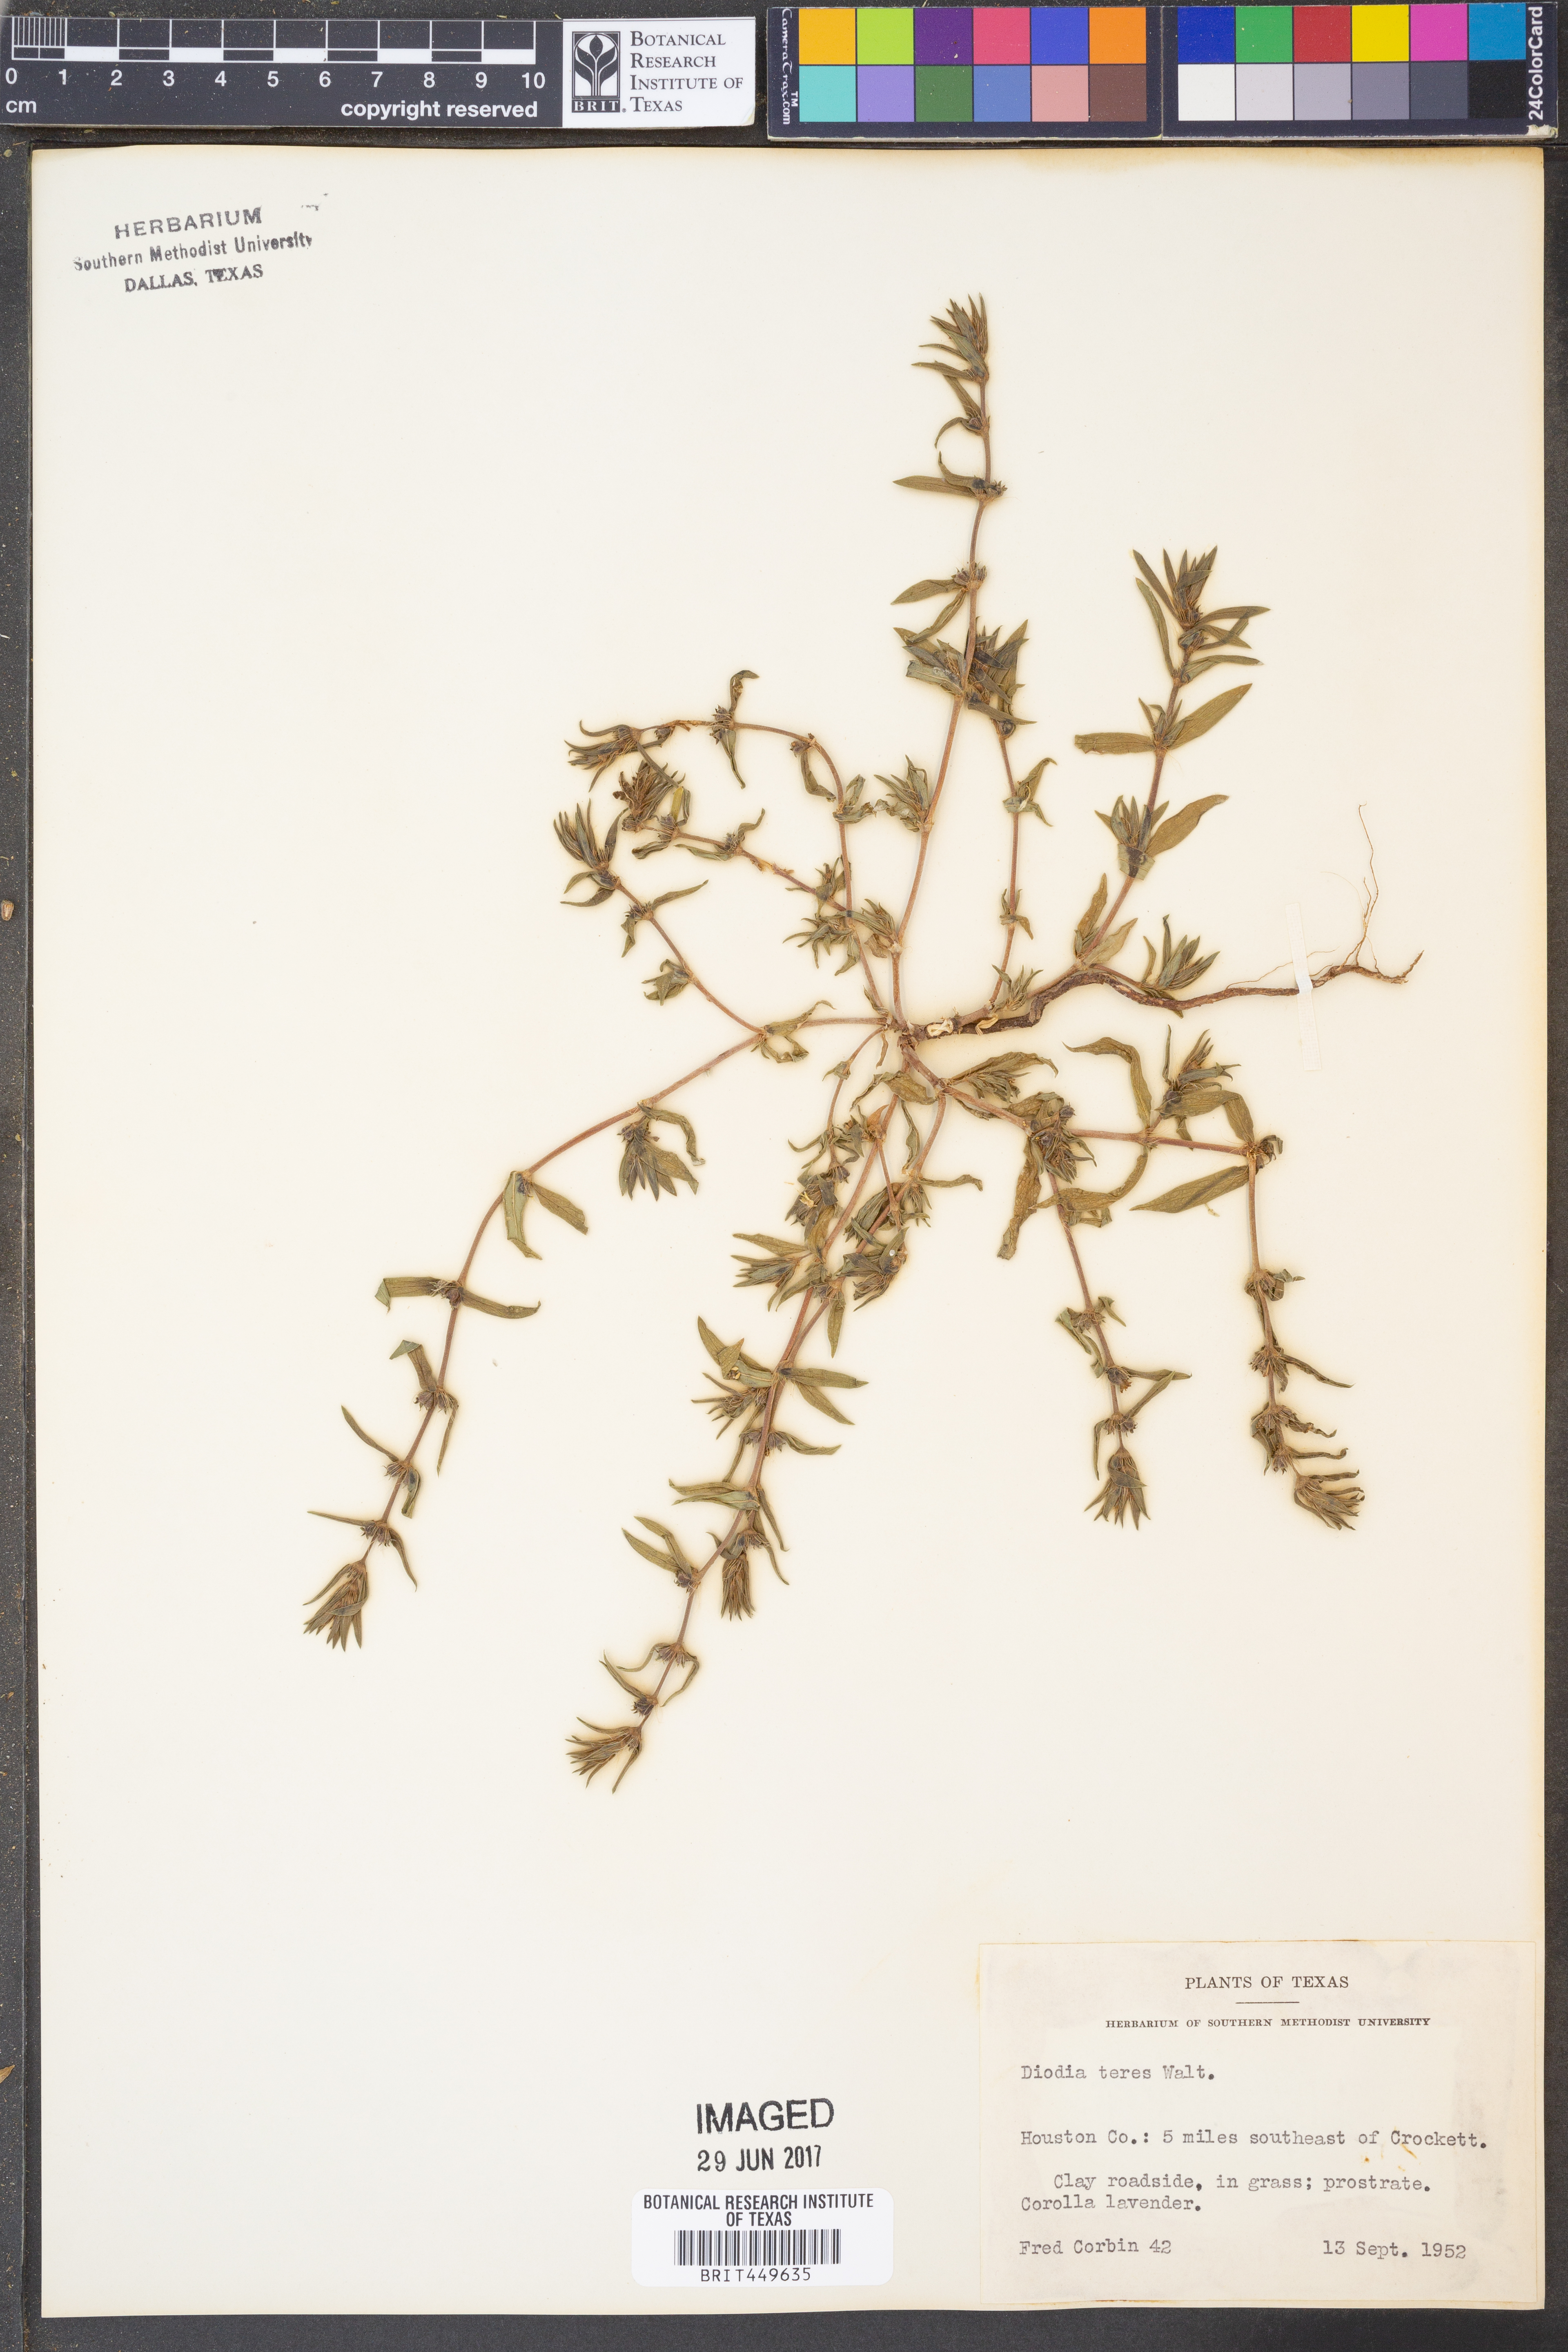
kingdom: Plantae
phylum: Tracheophyta
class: Magnoliopsida
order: Gentianales
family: Rubiaceae
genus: Hexasepalum
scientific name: Hexasepalum teres
